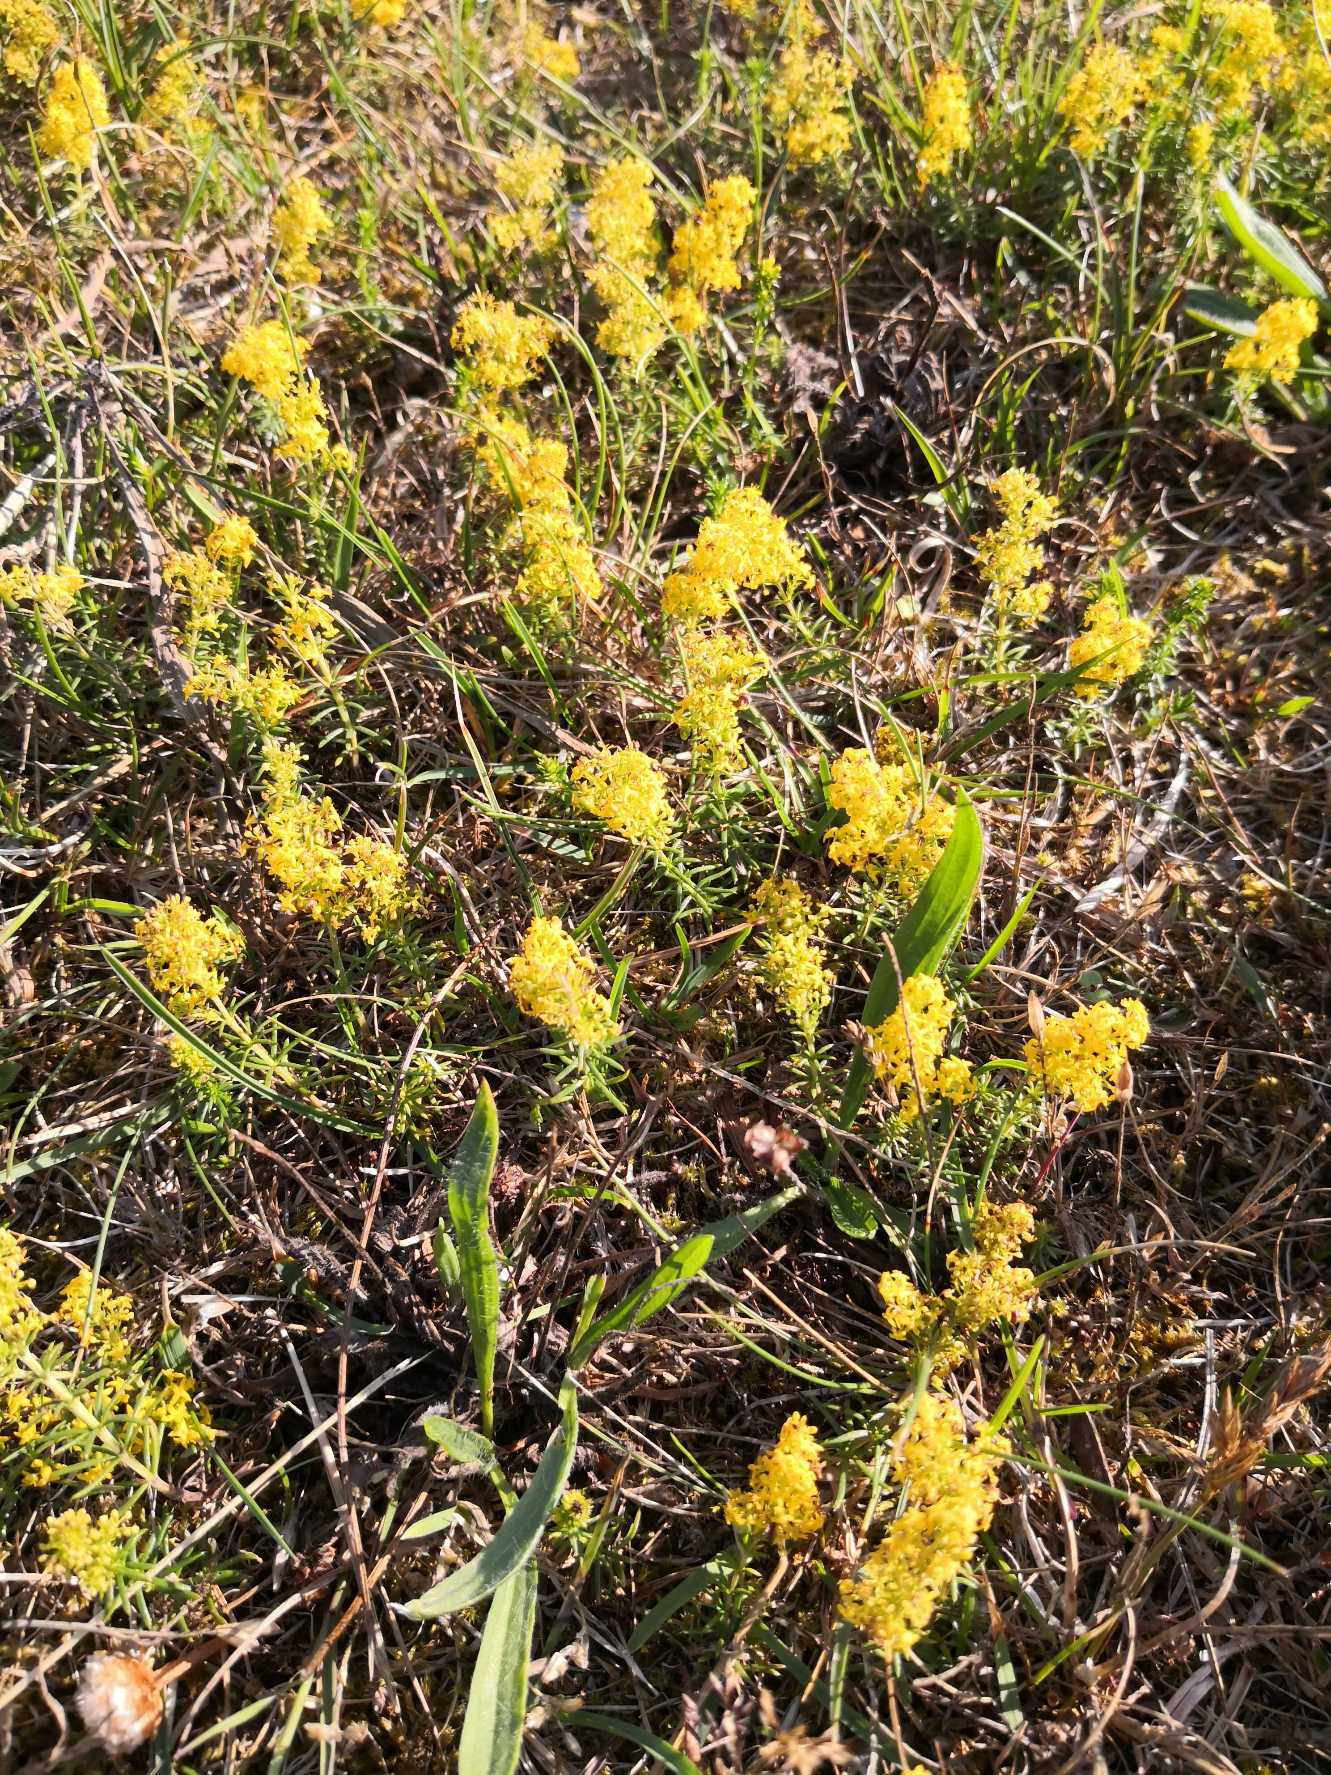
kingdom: Plantae
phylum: Tracheophyta
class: Magnoliopsida
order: Gentianales
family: Rubiaceae
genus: Galium
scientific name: Galium verum
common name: Gul snerre
